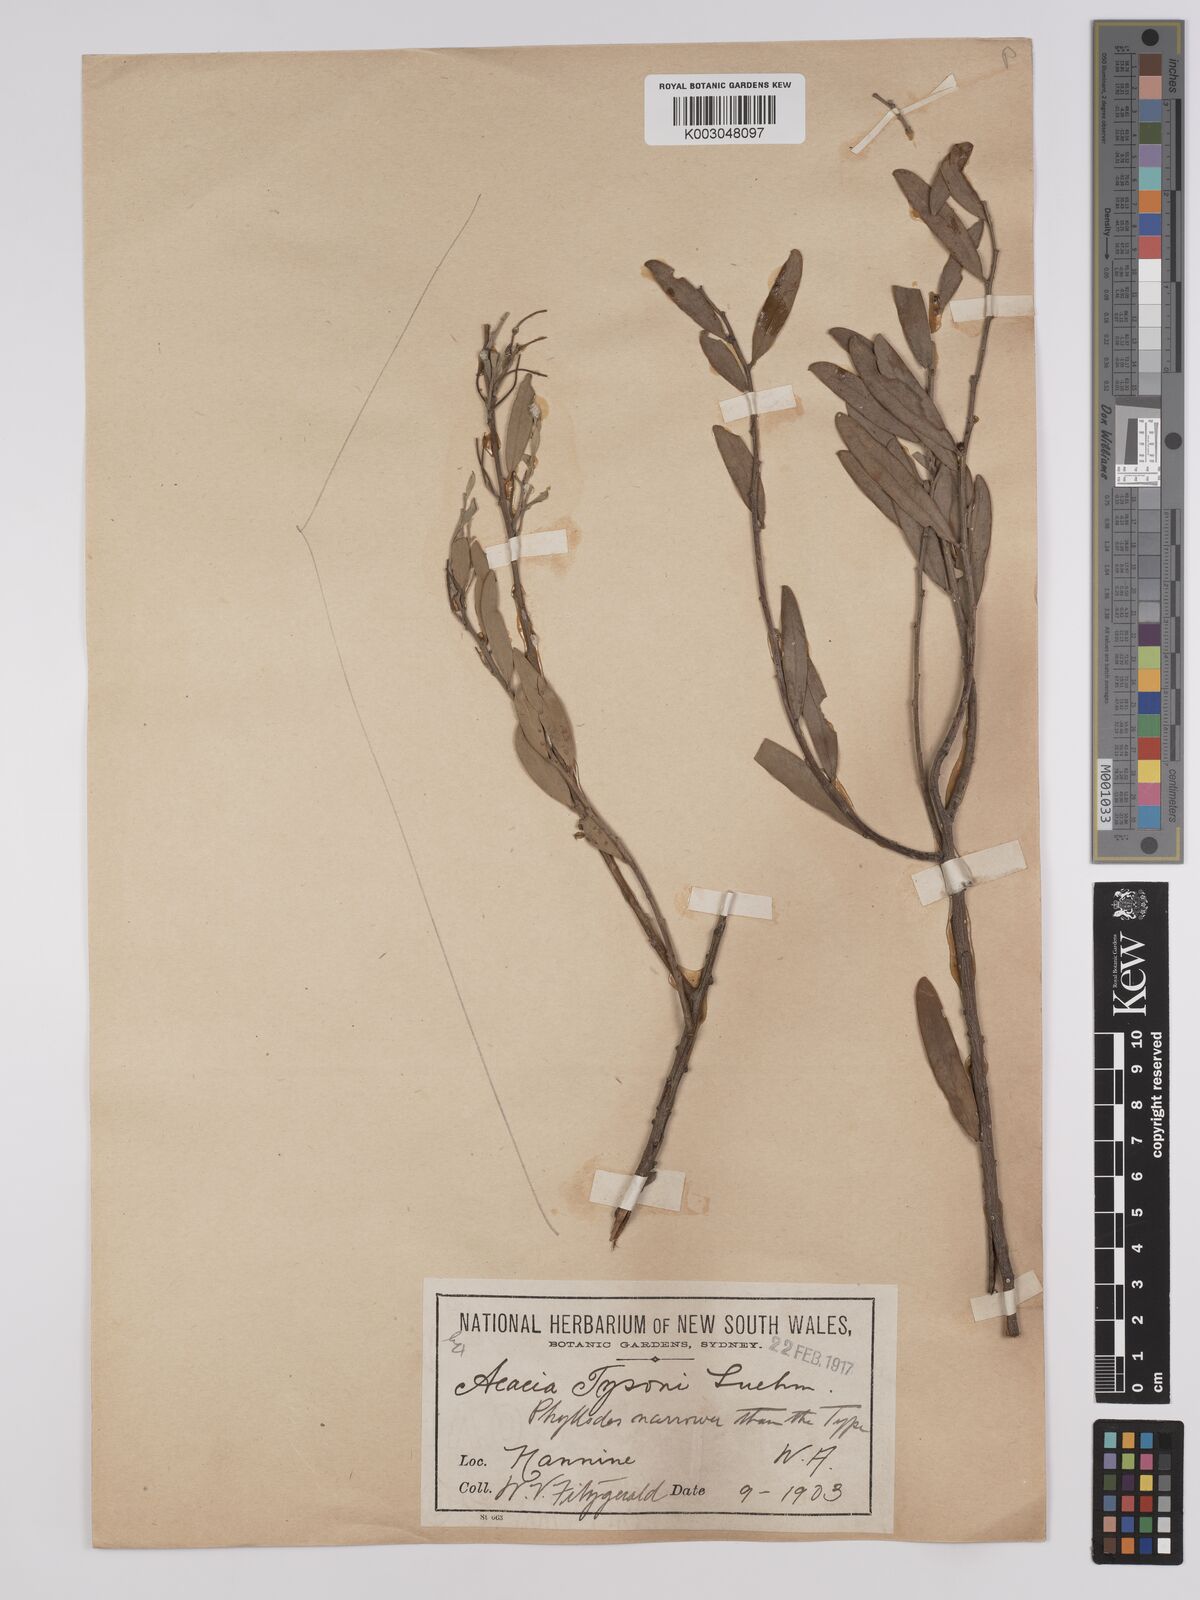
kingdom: Plantae
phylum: Tracheophyta
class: Magnoliopsida
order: Fabales
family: Fabaceae
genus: Acacia
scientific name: Acacia tysonii
